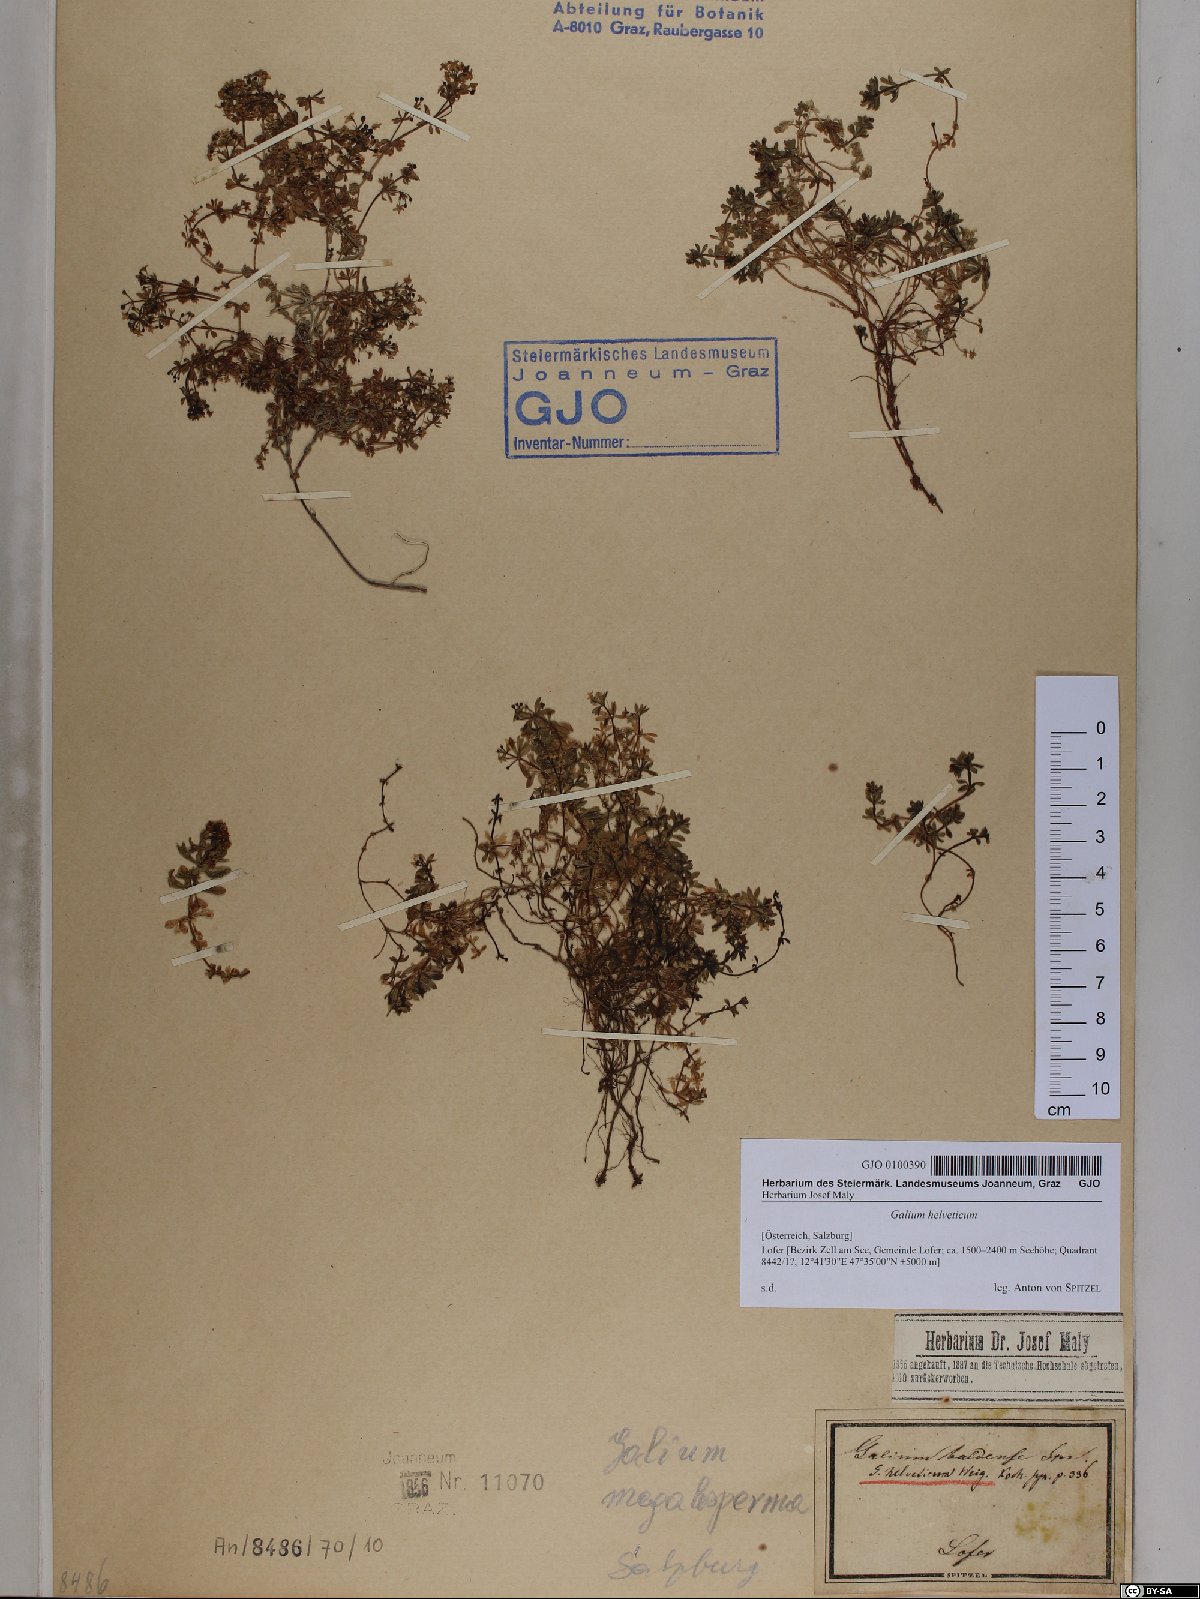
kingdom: Plantae
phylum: Tracheophyta
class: Magnoliopsida
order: Gentianales
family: Rubiaceae
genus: Galium
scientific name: Galium saxatile
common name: Heath bedstraw
